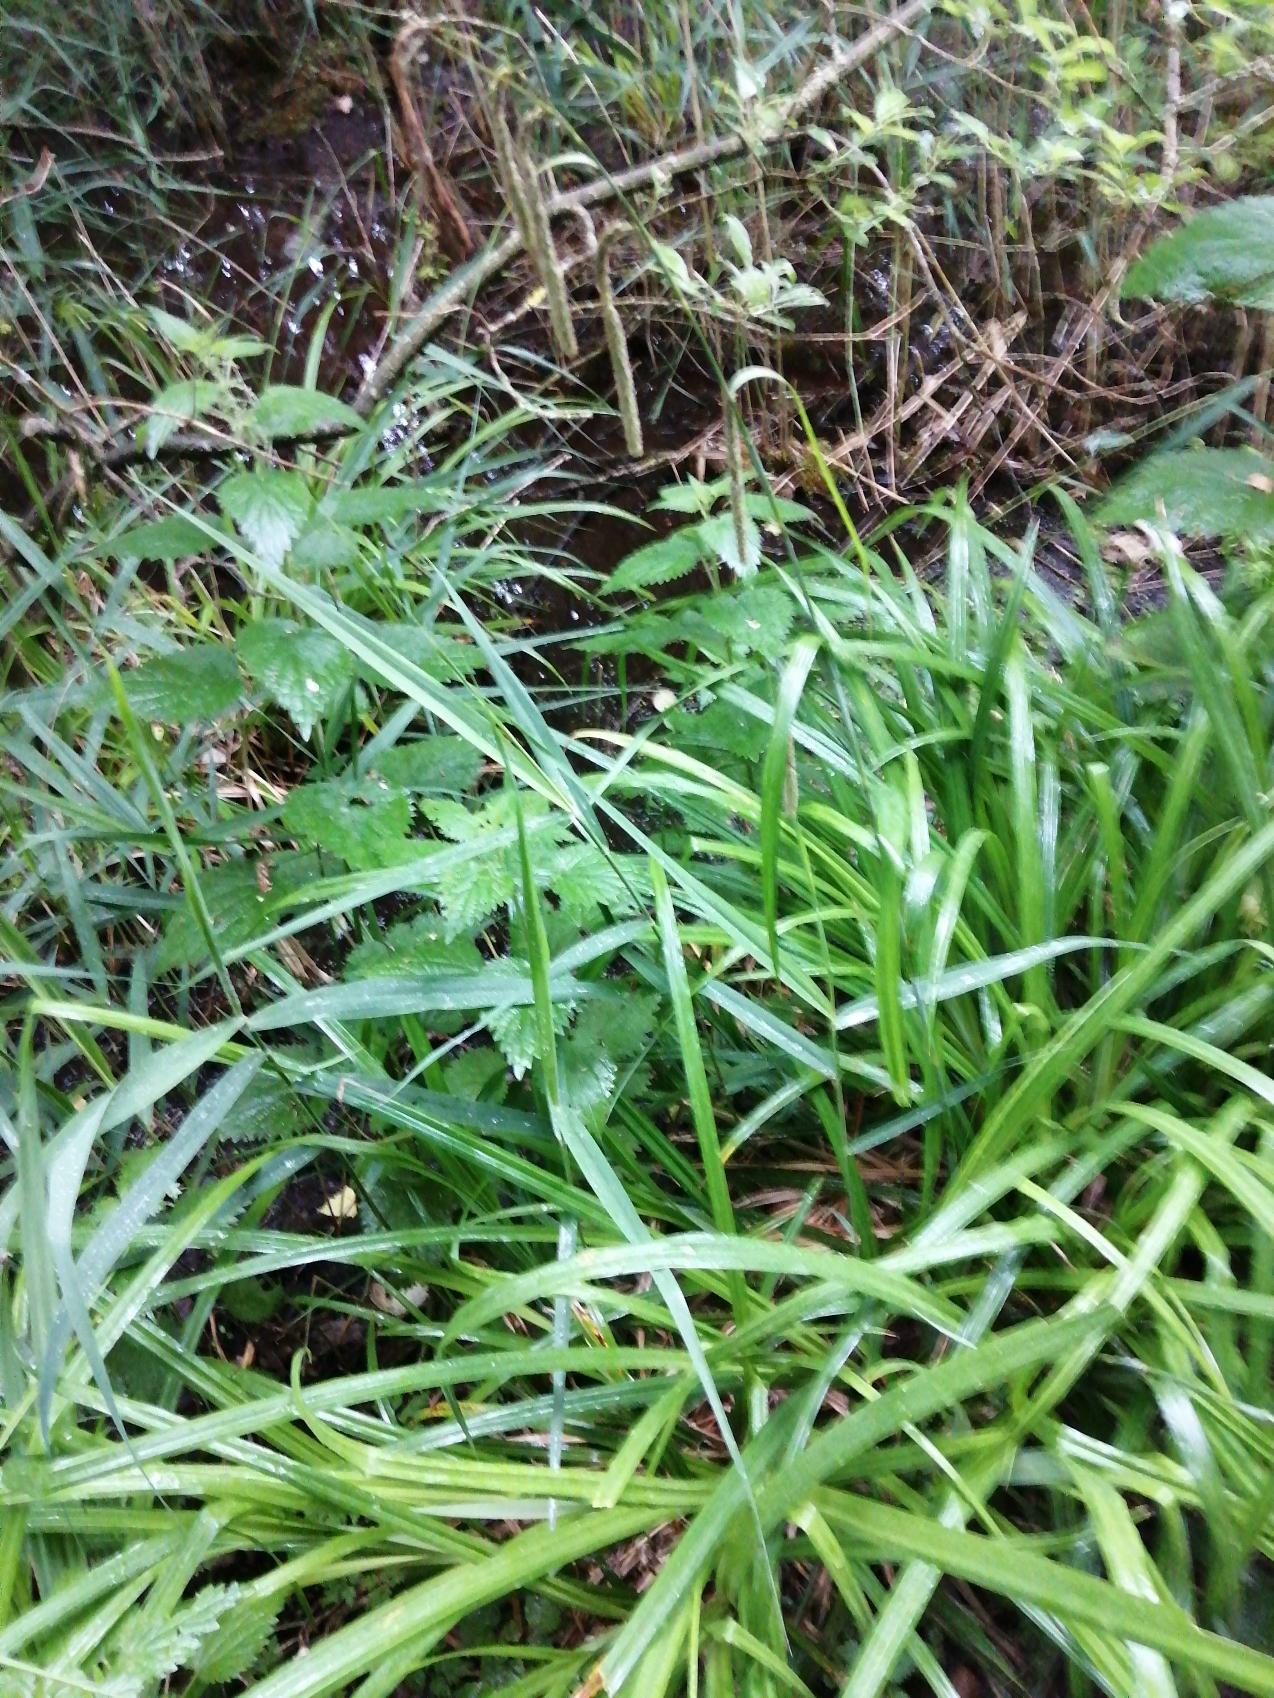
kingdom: Plantae
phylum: Tracheophyta
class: Liliopsida
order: Poales
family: Cyperaceae
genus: Carex
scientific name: Carex pendula
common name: Kæmpe-star
